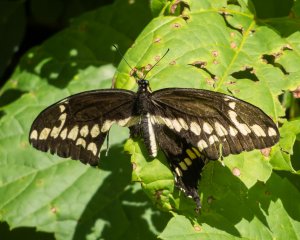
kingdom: Animalia
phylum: Arthropoda
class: Insecta
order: Lepidoptera
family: Papilionidae
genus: Papilio
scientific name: Papilio cresphontes
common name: Eastern Giant Swallowtail
